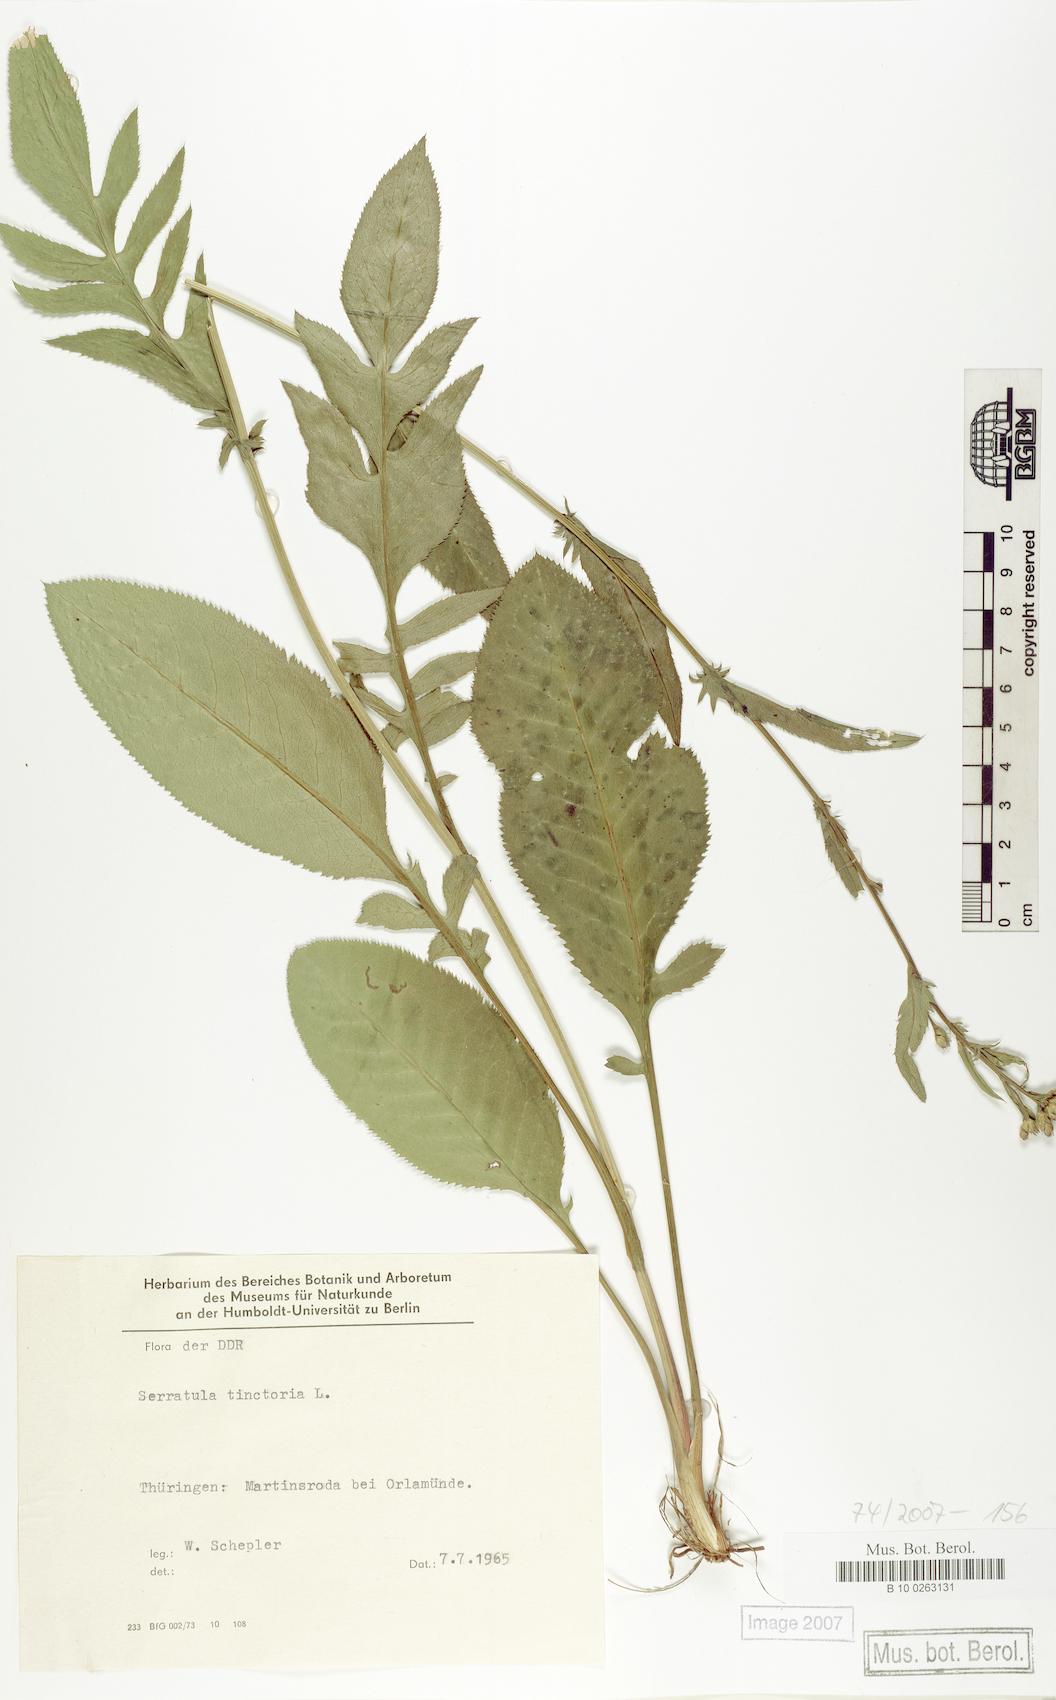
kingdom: Plantae
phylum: Tracheophyta
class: Magnoliopsida
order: Asterales
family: Asteraceae
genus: Serratula
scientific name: Serratula tinctoria
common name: Saw-wort
